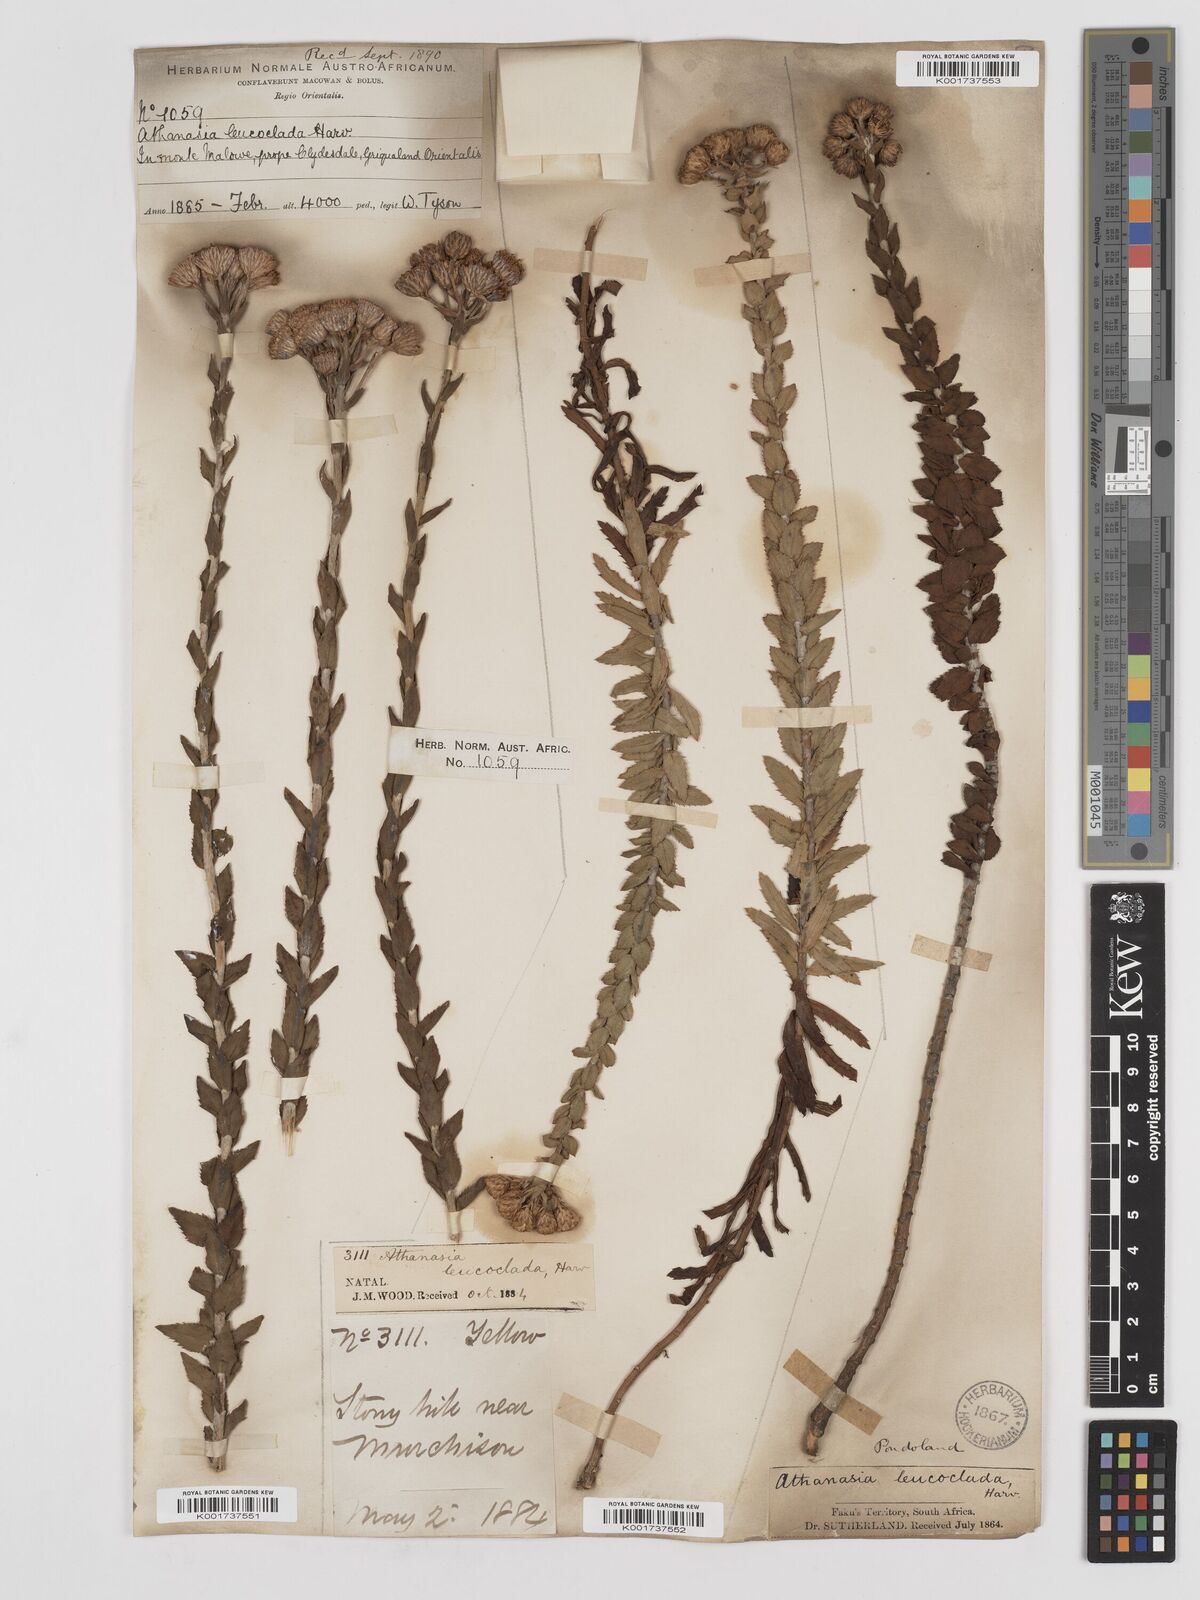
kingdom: Plantae
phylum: Tracheophyta
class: Magnoliopsida
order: Asterales
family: Asteraceae
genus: Inulanthera
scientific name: Inulanthera leucoclada
